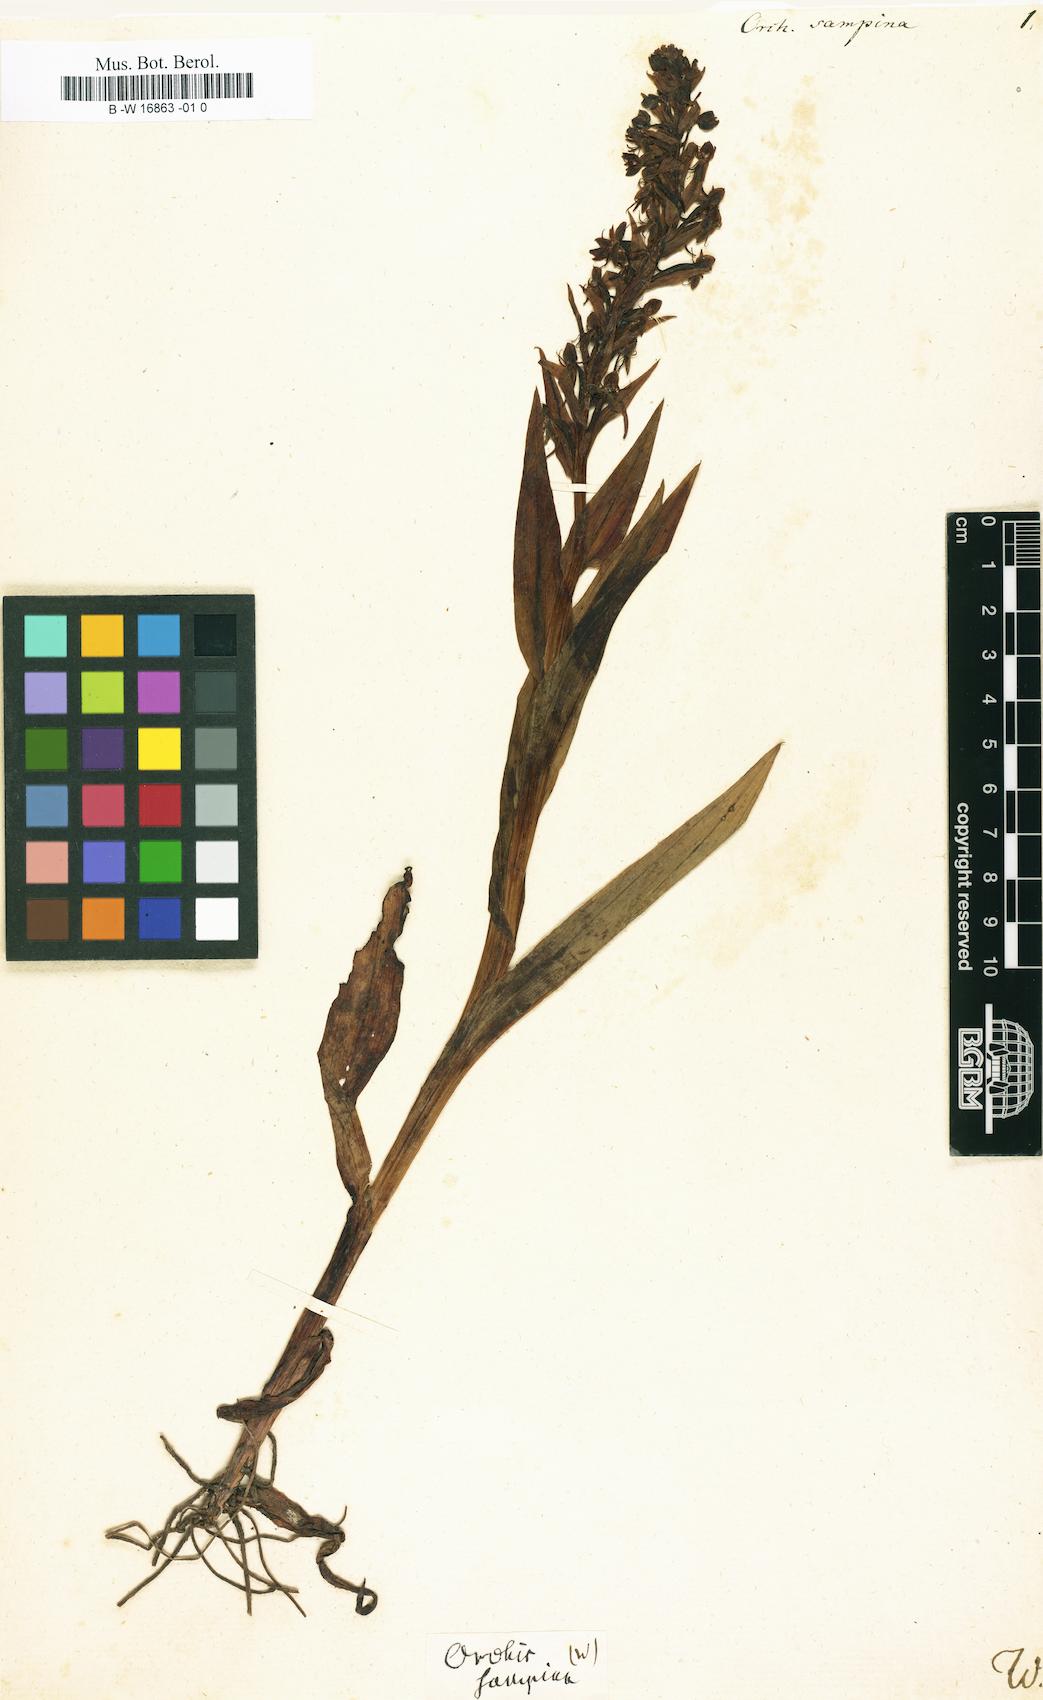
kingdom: Plantae
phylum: Tracheophyta
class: Liliopsida
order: Asparagales
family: Orchidaceae
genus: Orchis
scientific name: Orchis
